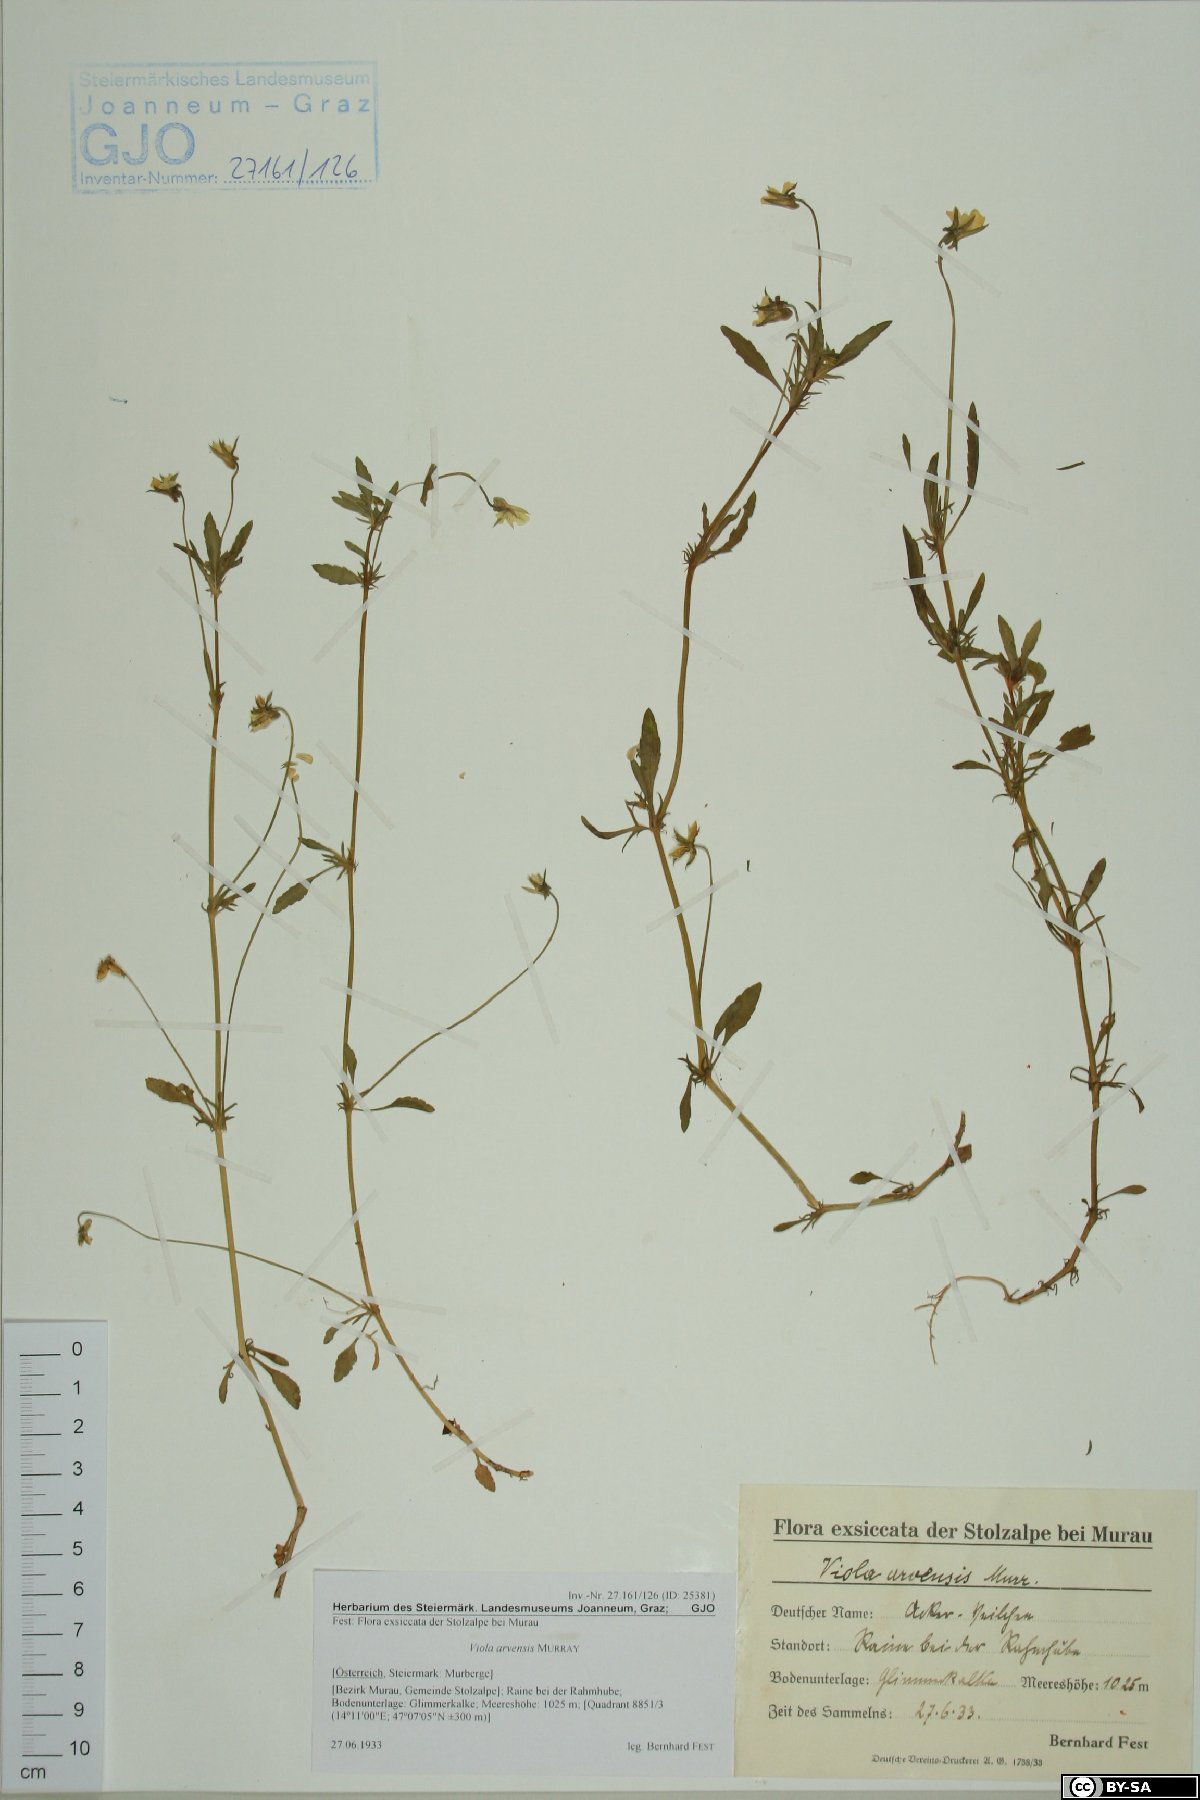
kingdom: Plantae
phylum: Tracheophyta
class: Magnoliopsida
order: Malpighiales
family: Violaceae
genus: Viola
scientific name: Viola arvensis
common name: Field pansy
